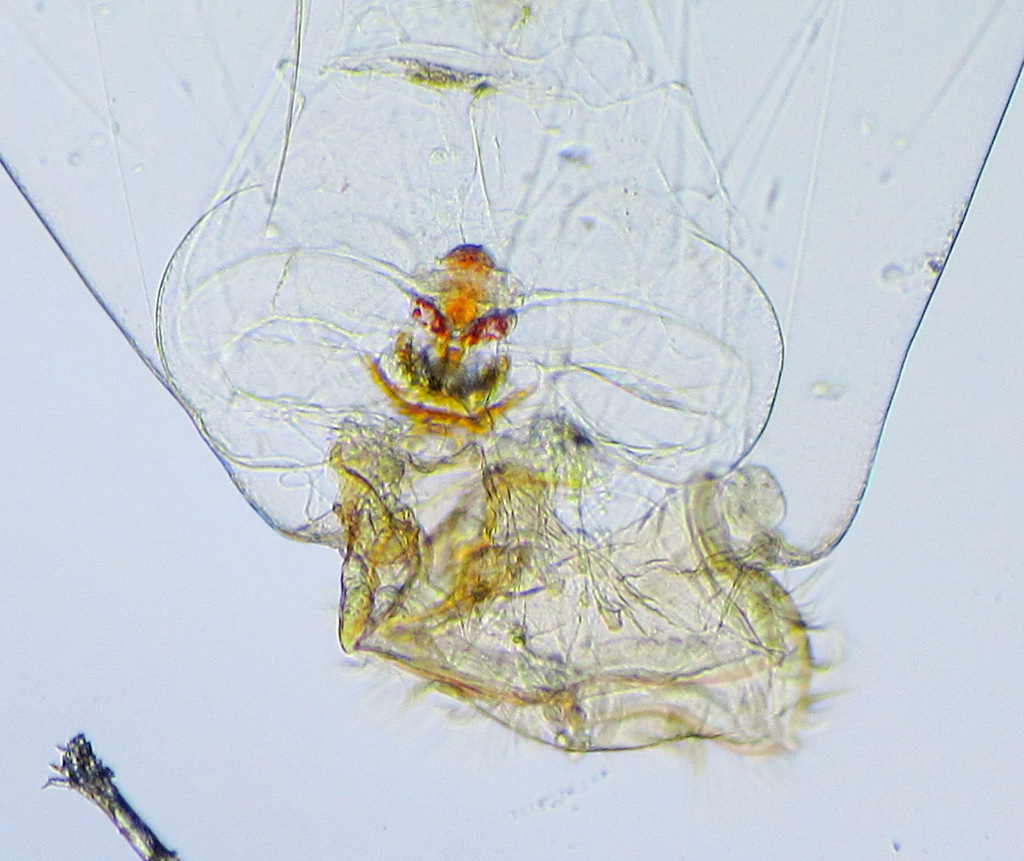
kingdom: Animalia
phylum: Rotifera
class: Eurotatoria
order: Ploima
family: Asplanchnidae
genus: Asplanchna
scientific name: Asplanchna priodonta
